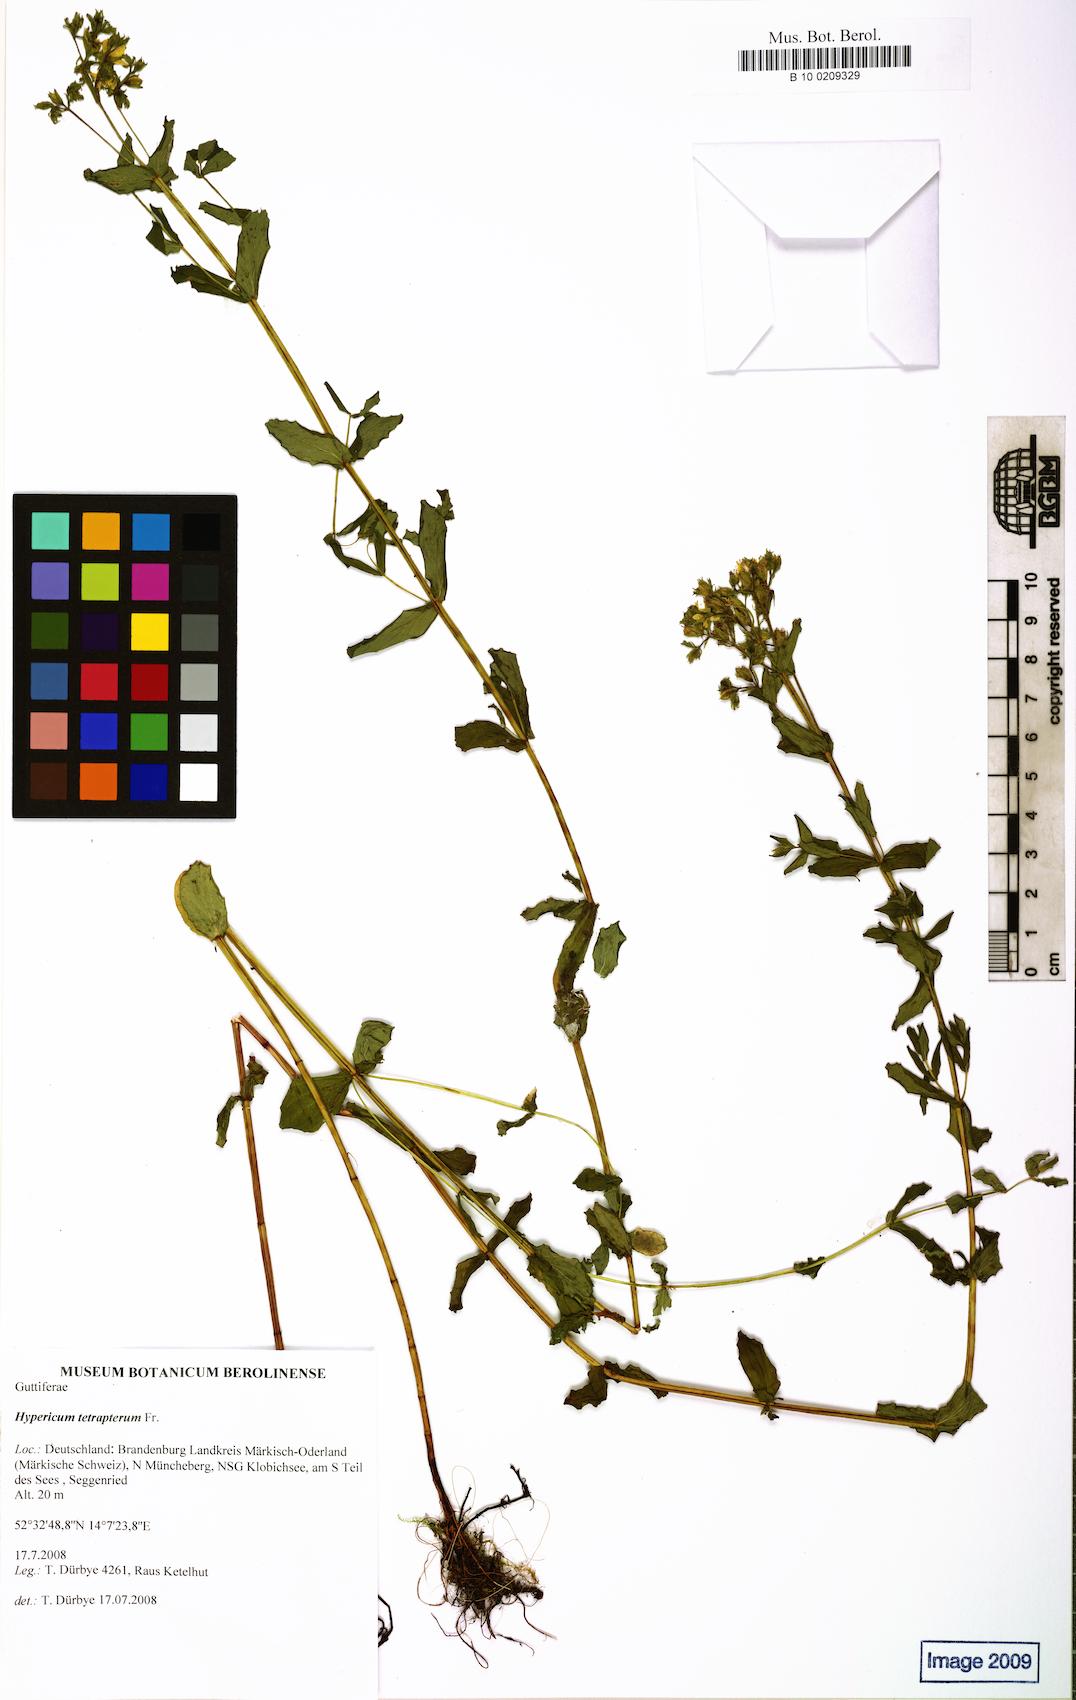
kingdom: Plantae
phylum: Tracheophyta
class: Magnoliopsida
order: Malpighiales
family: Hypericaceae
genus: Hypericum
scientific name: Hypericum tetrapterum
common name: Square-stalked st. john's-wort
